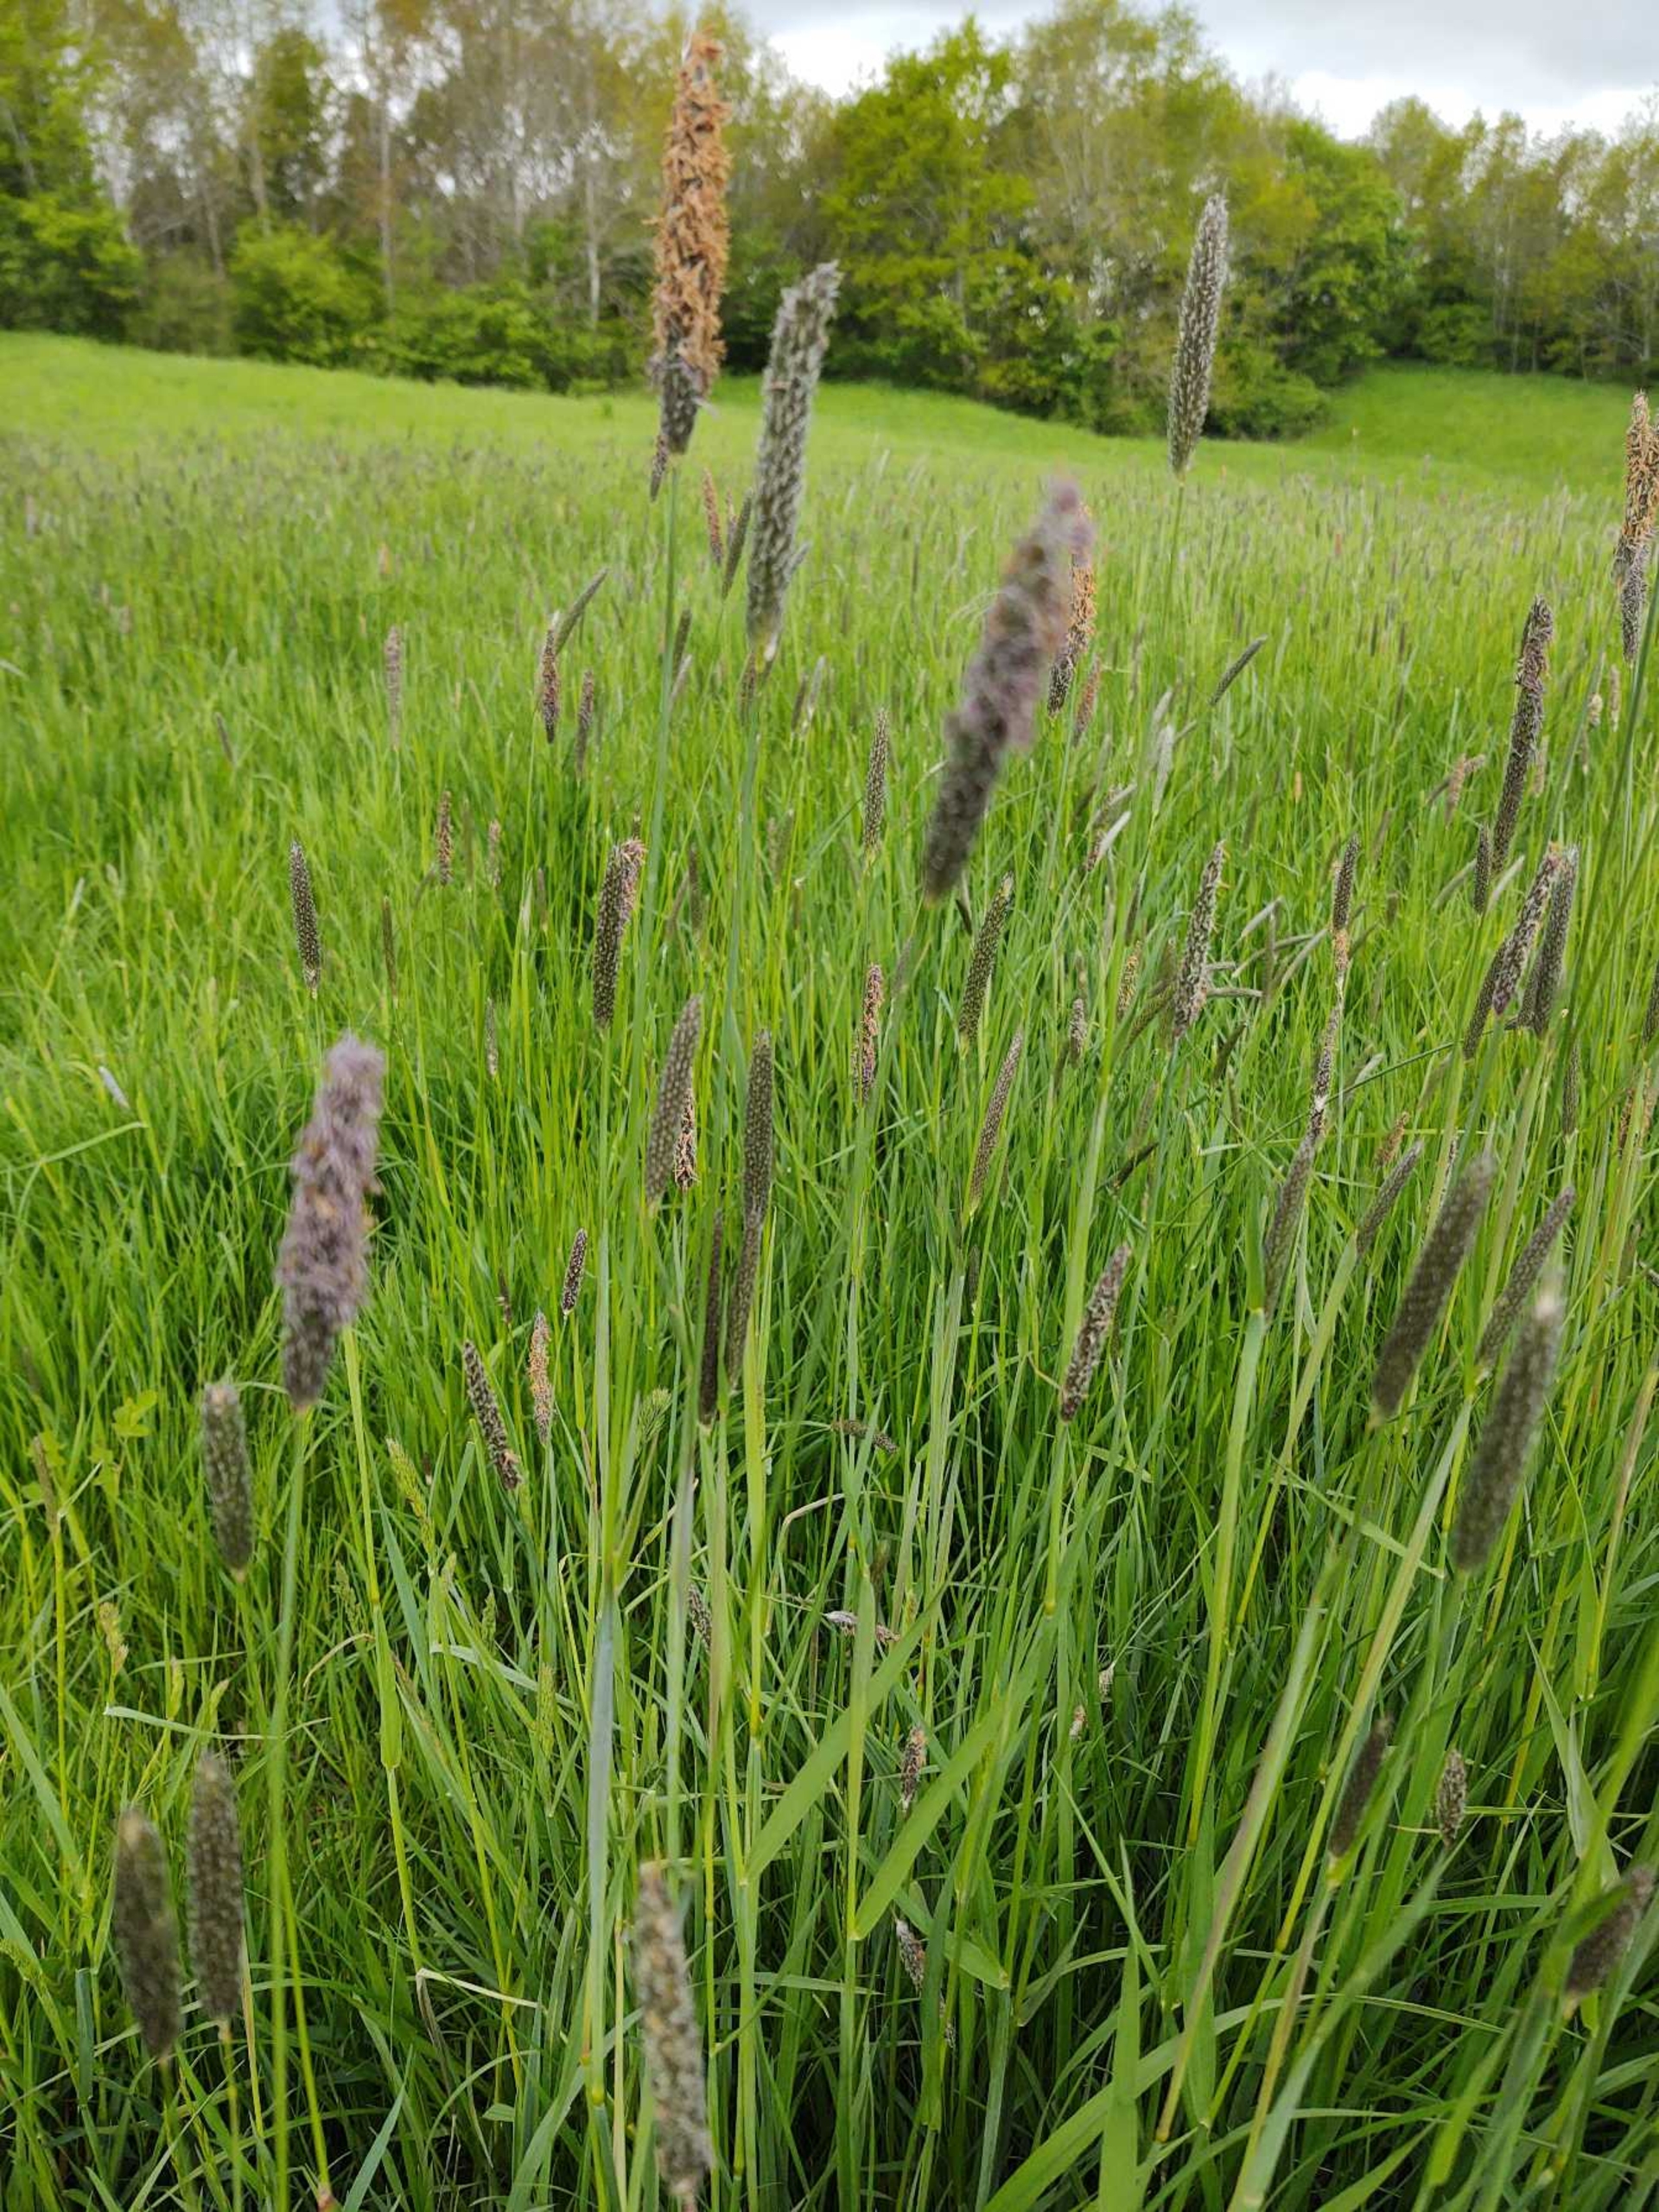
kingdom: Plantae
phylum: Tracheophyta
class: Liliopsida
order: Poales
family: Poaceae
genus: Alopecurus
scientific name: Alopecurus pratensis
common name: Eng-rævehale
